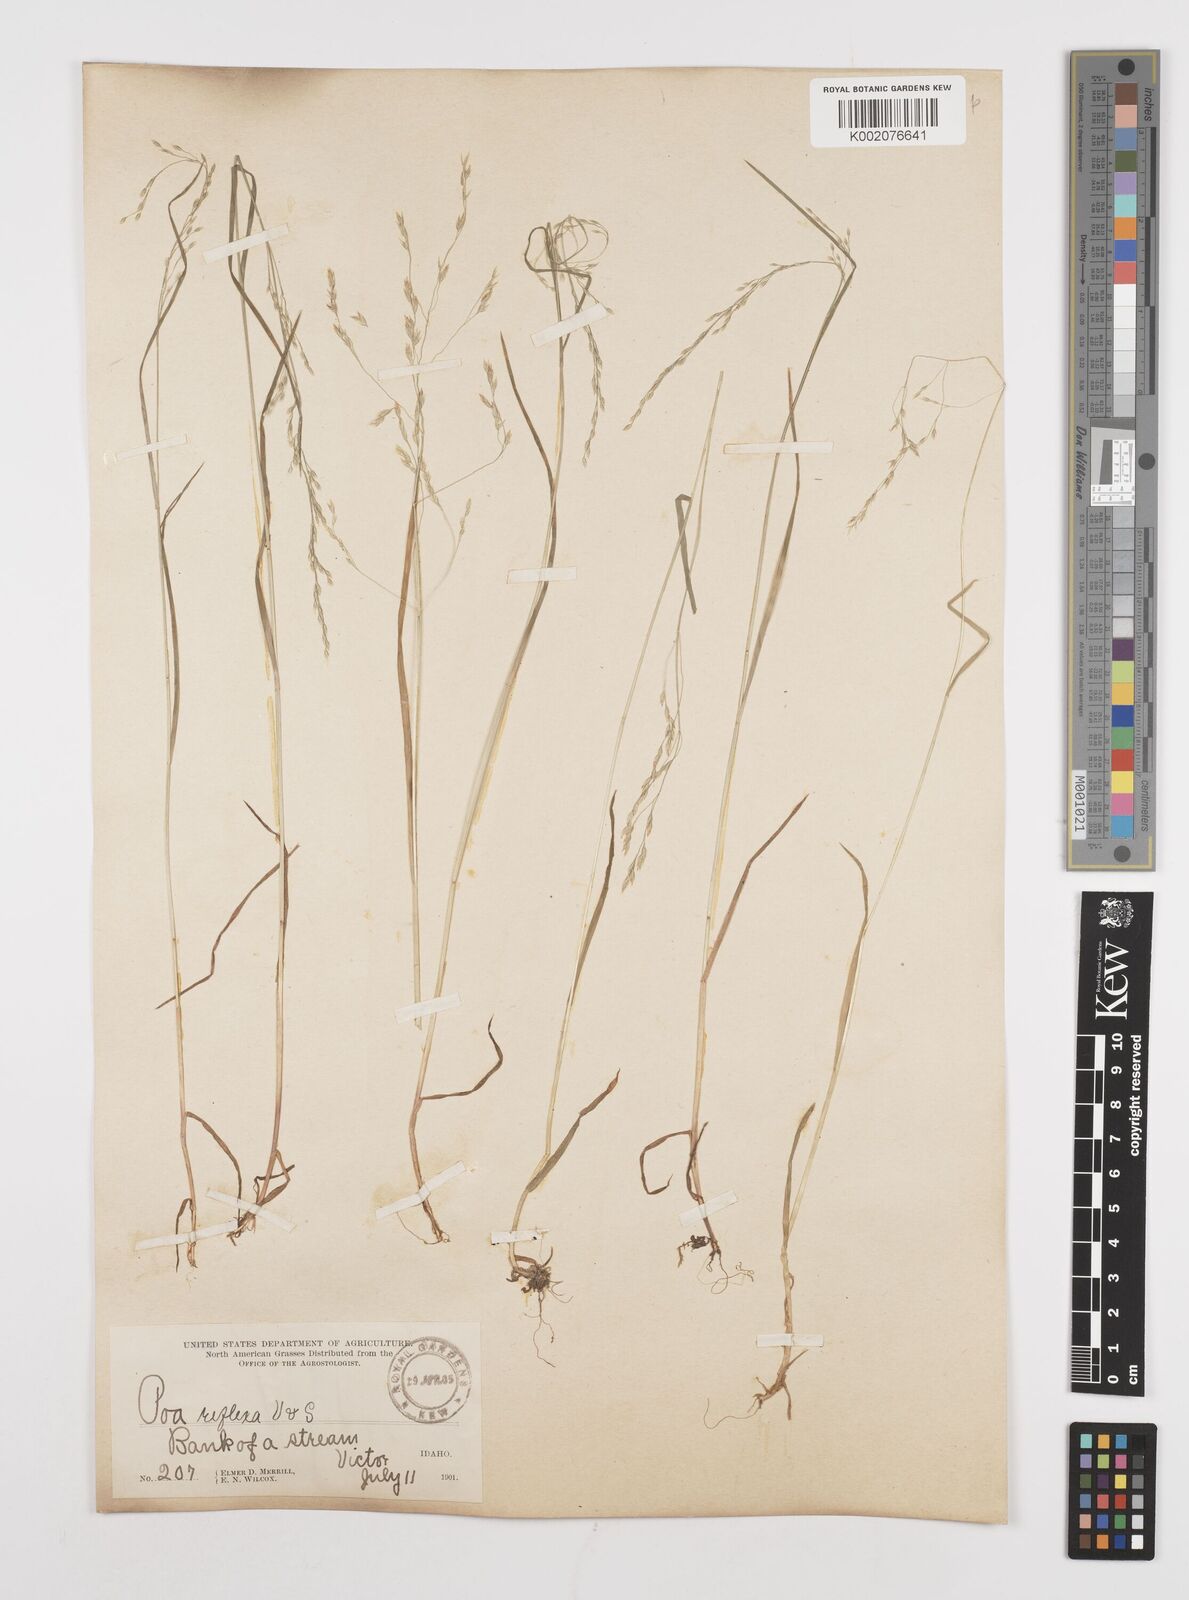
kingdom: Plantae
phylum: Tracheophyta
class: Liliopsida
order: Poales
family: Poaceae
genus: Poa
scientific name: Poa reflexa
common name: Nodding bluegrass
